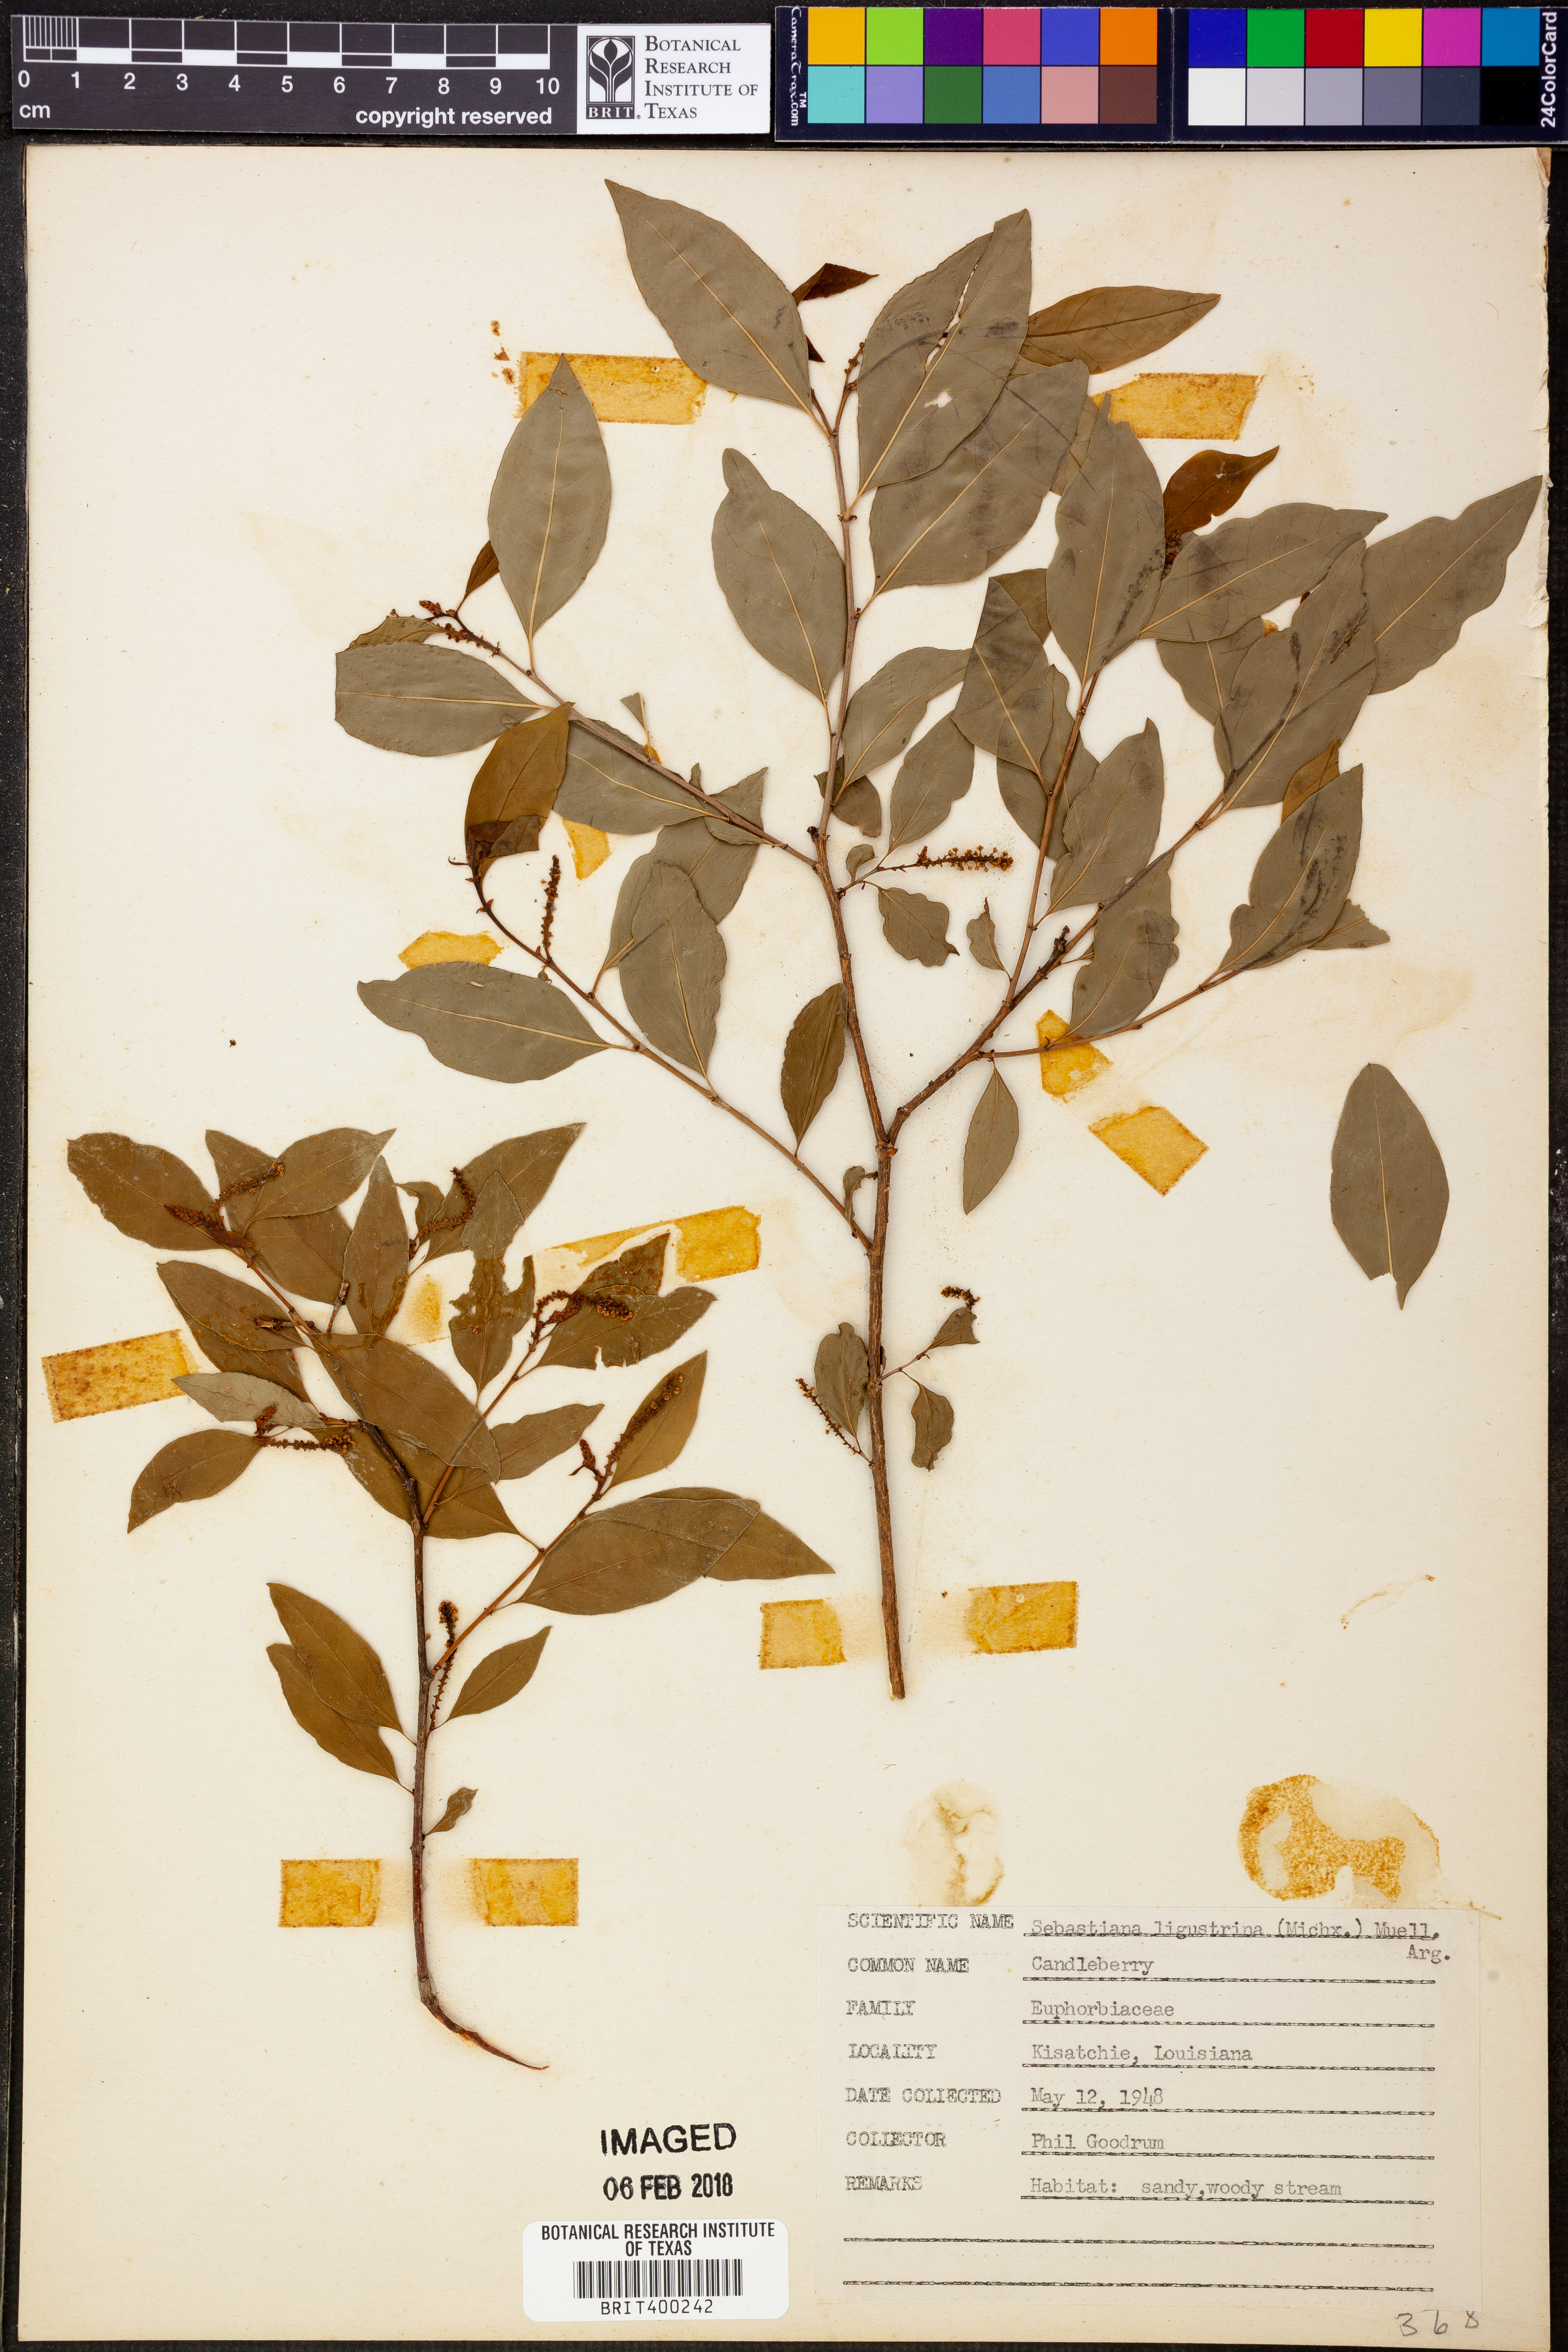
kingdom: Plantae
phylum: Tracheophyta
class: Magnoliopsida
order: Malpighiales
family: Euphorbiaceae
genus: Ditrysinia
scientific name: Ditrysinia fruticosa
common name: Gulf sebastian-bush
